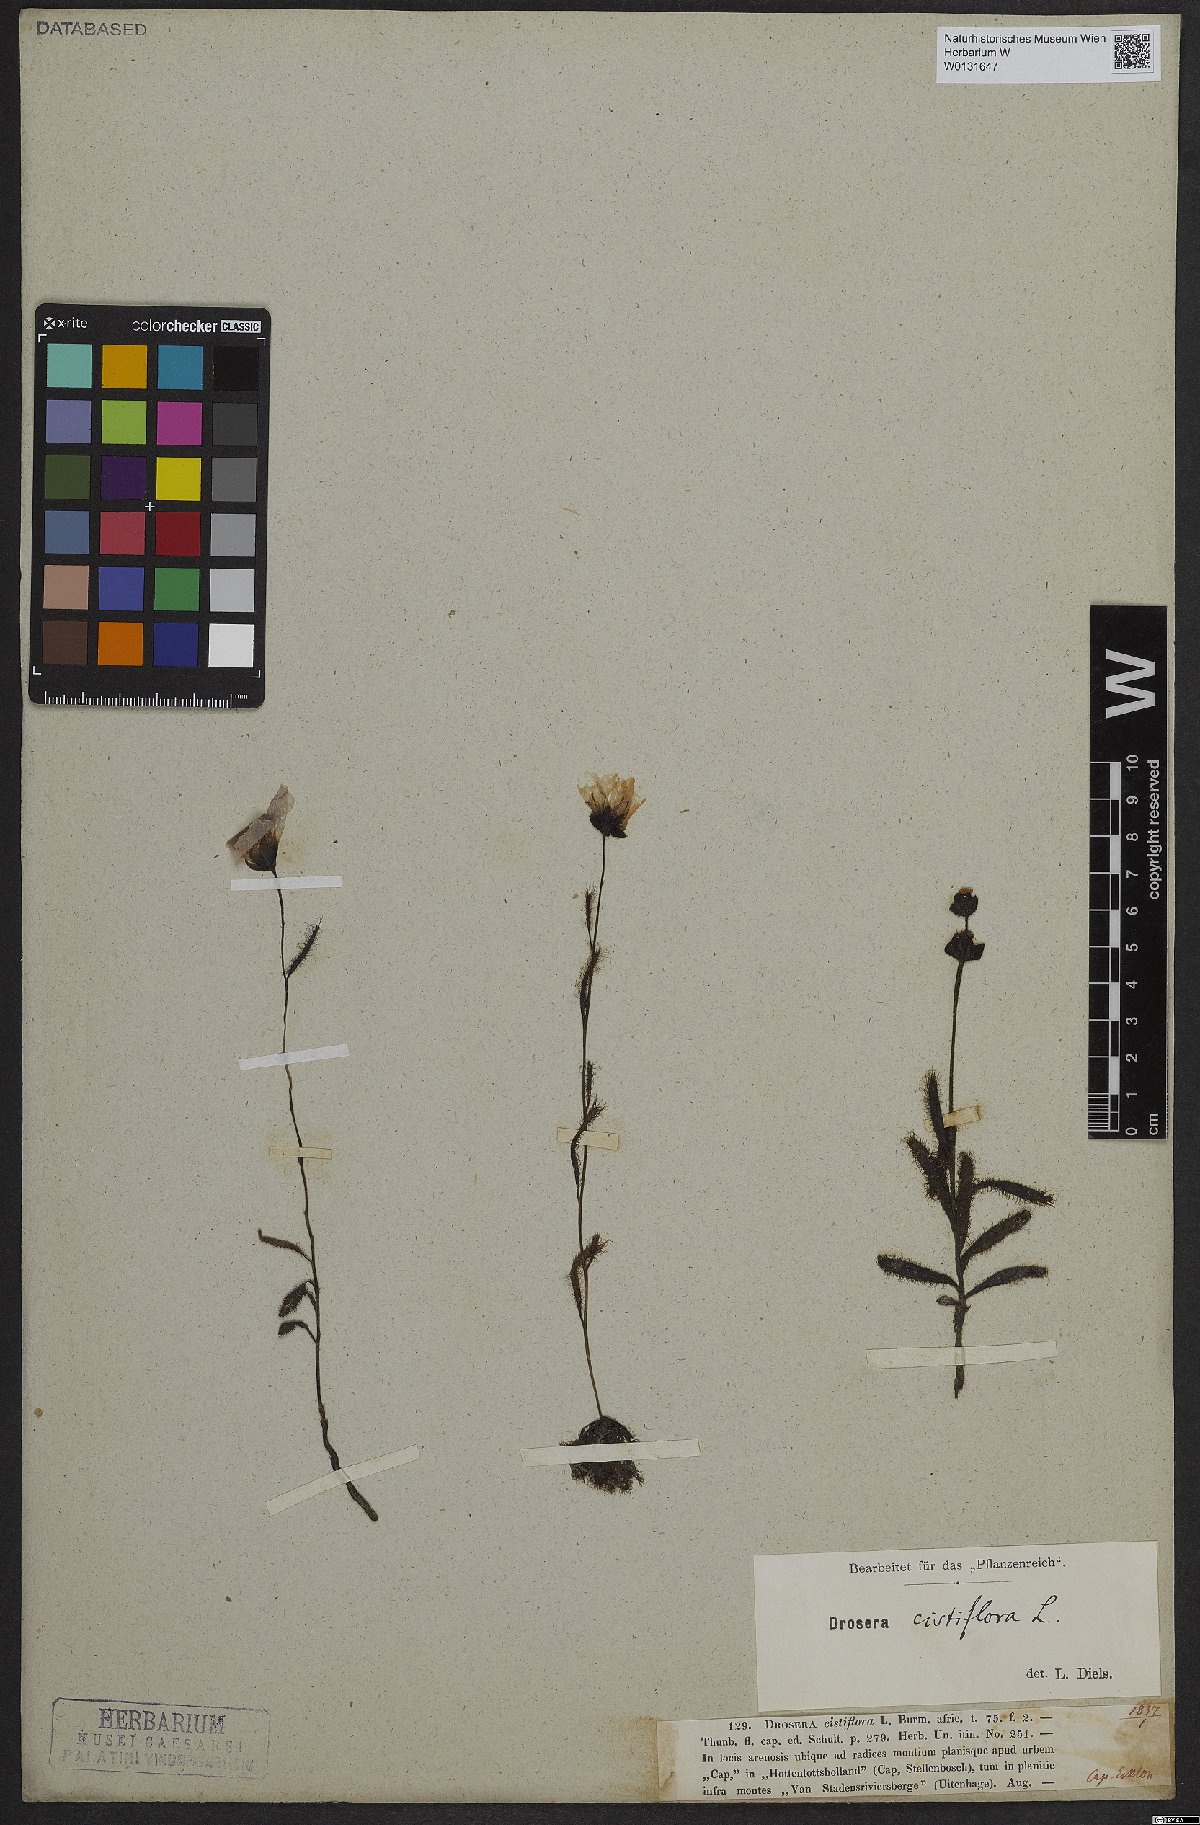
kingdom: Plantae
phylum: Tracheophyta
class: Magnoliopsida
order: Caryophyllales
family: Droseraceae
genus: Drosera
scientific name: Drosera cistiflora
